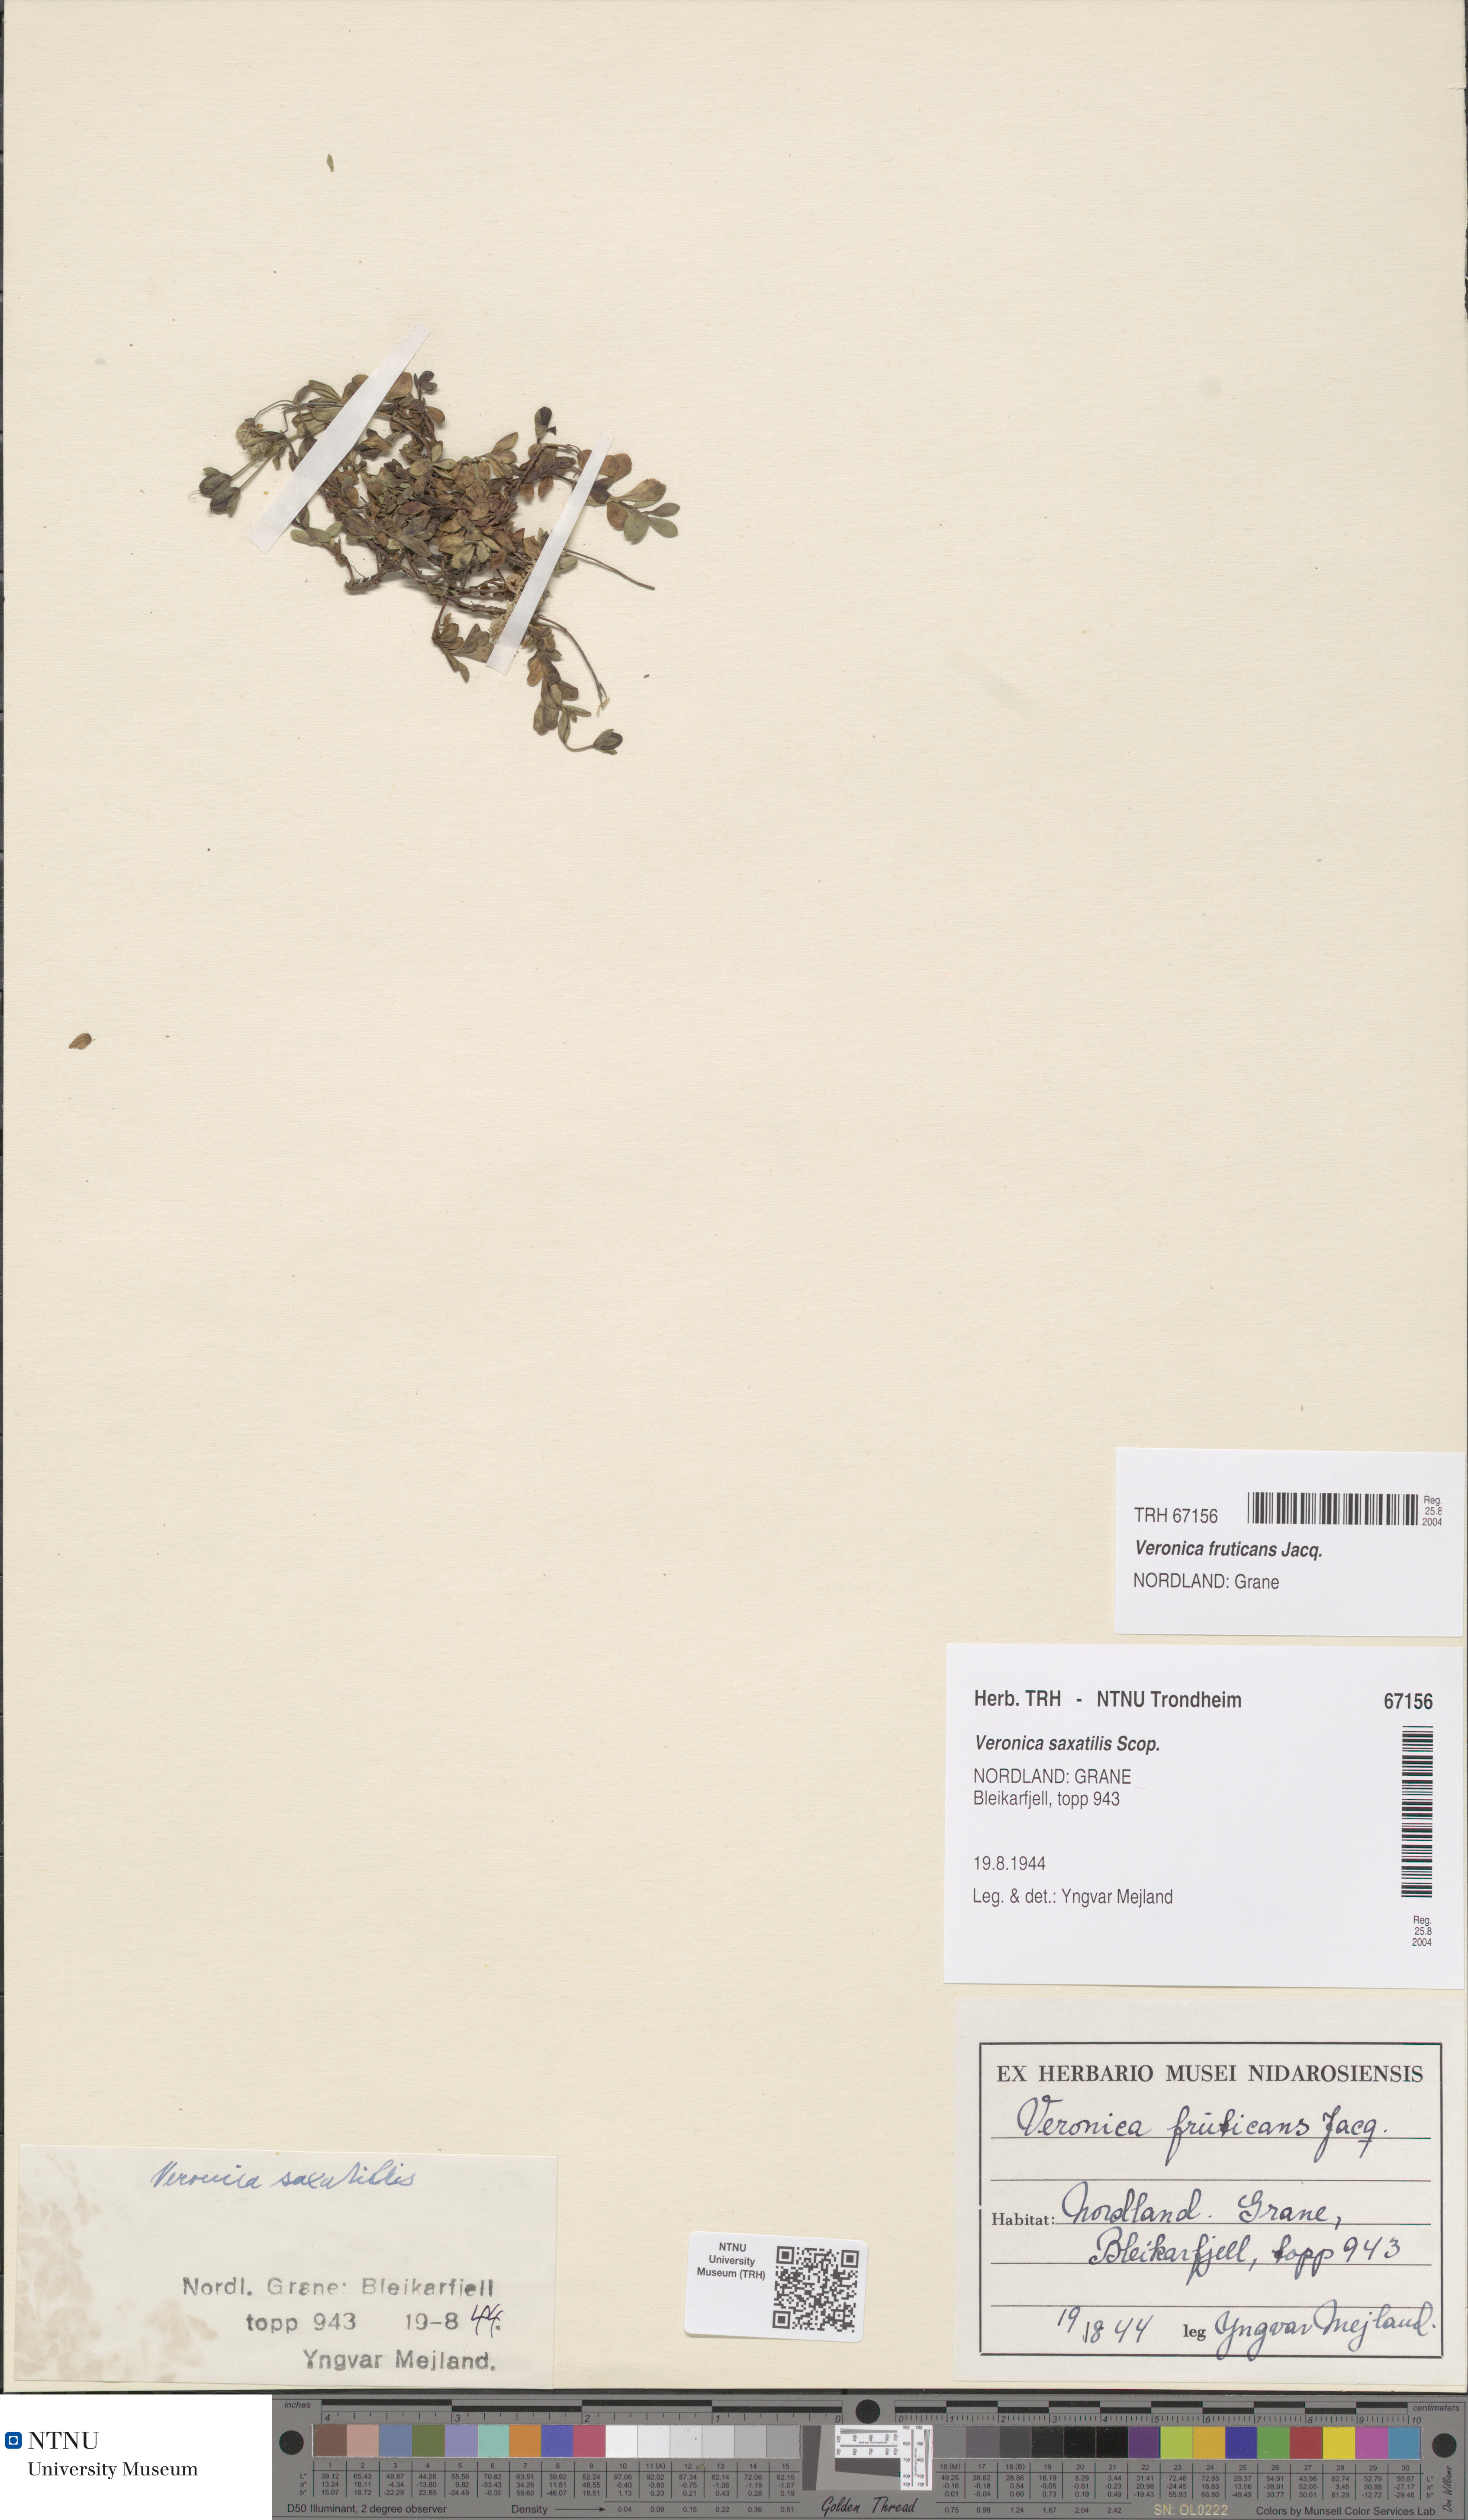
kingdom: Plantae
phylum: Tracheophyta
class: Magnoliopsida
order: Lamiales
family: Plantaginaceae
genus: Veronica
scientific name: Veronica fruticans
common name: Rock speedwell
